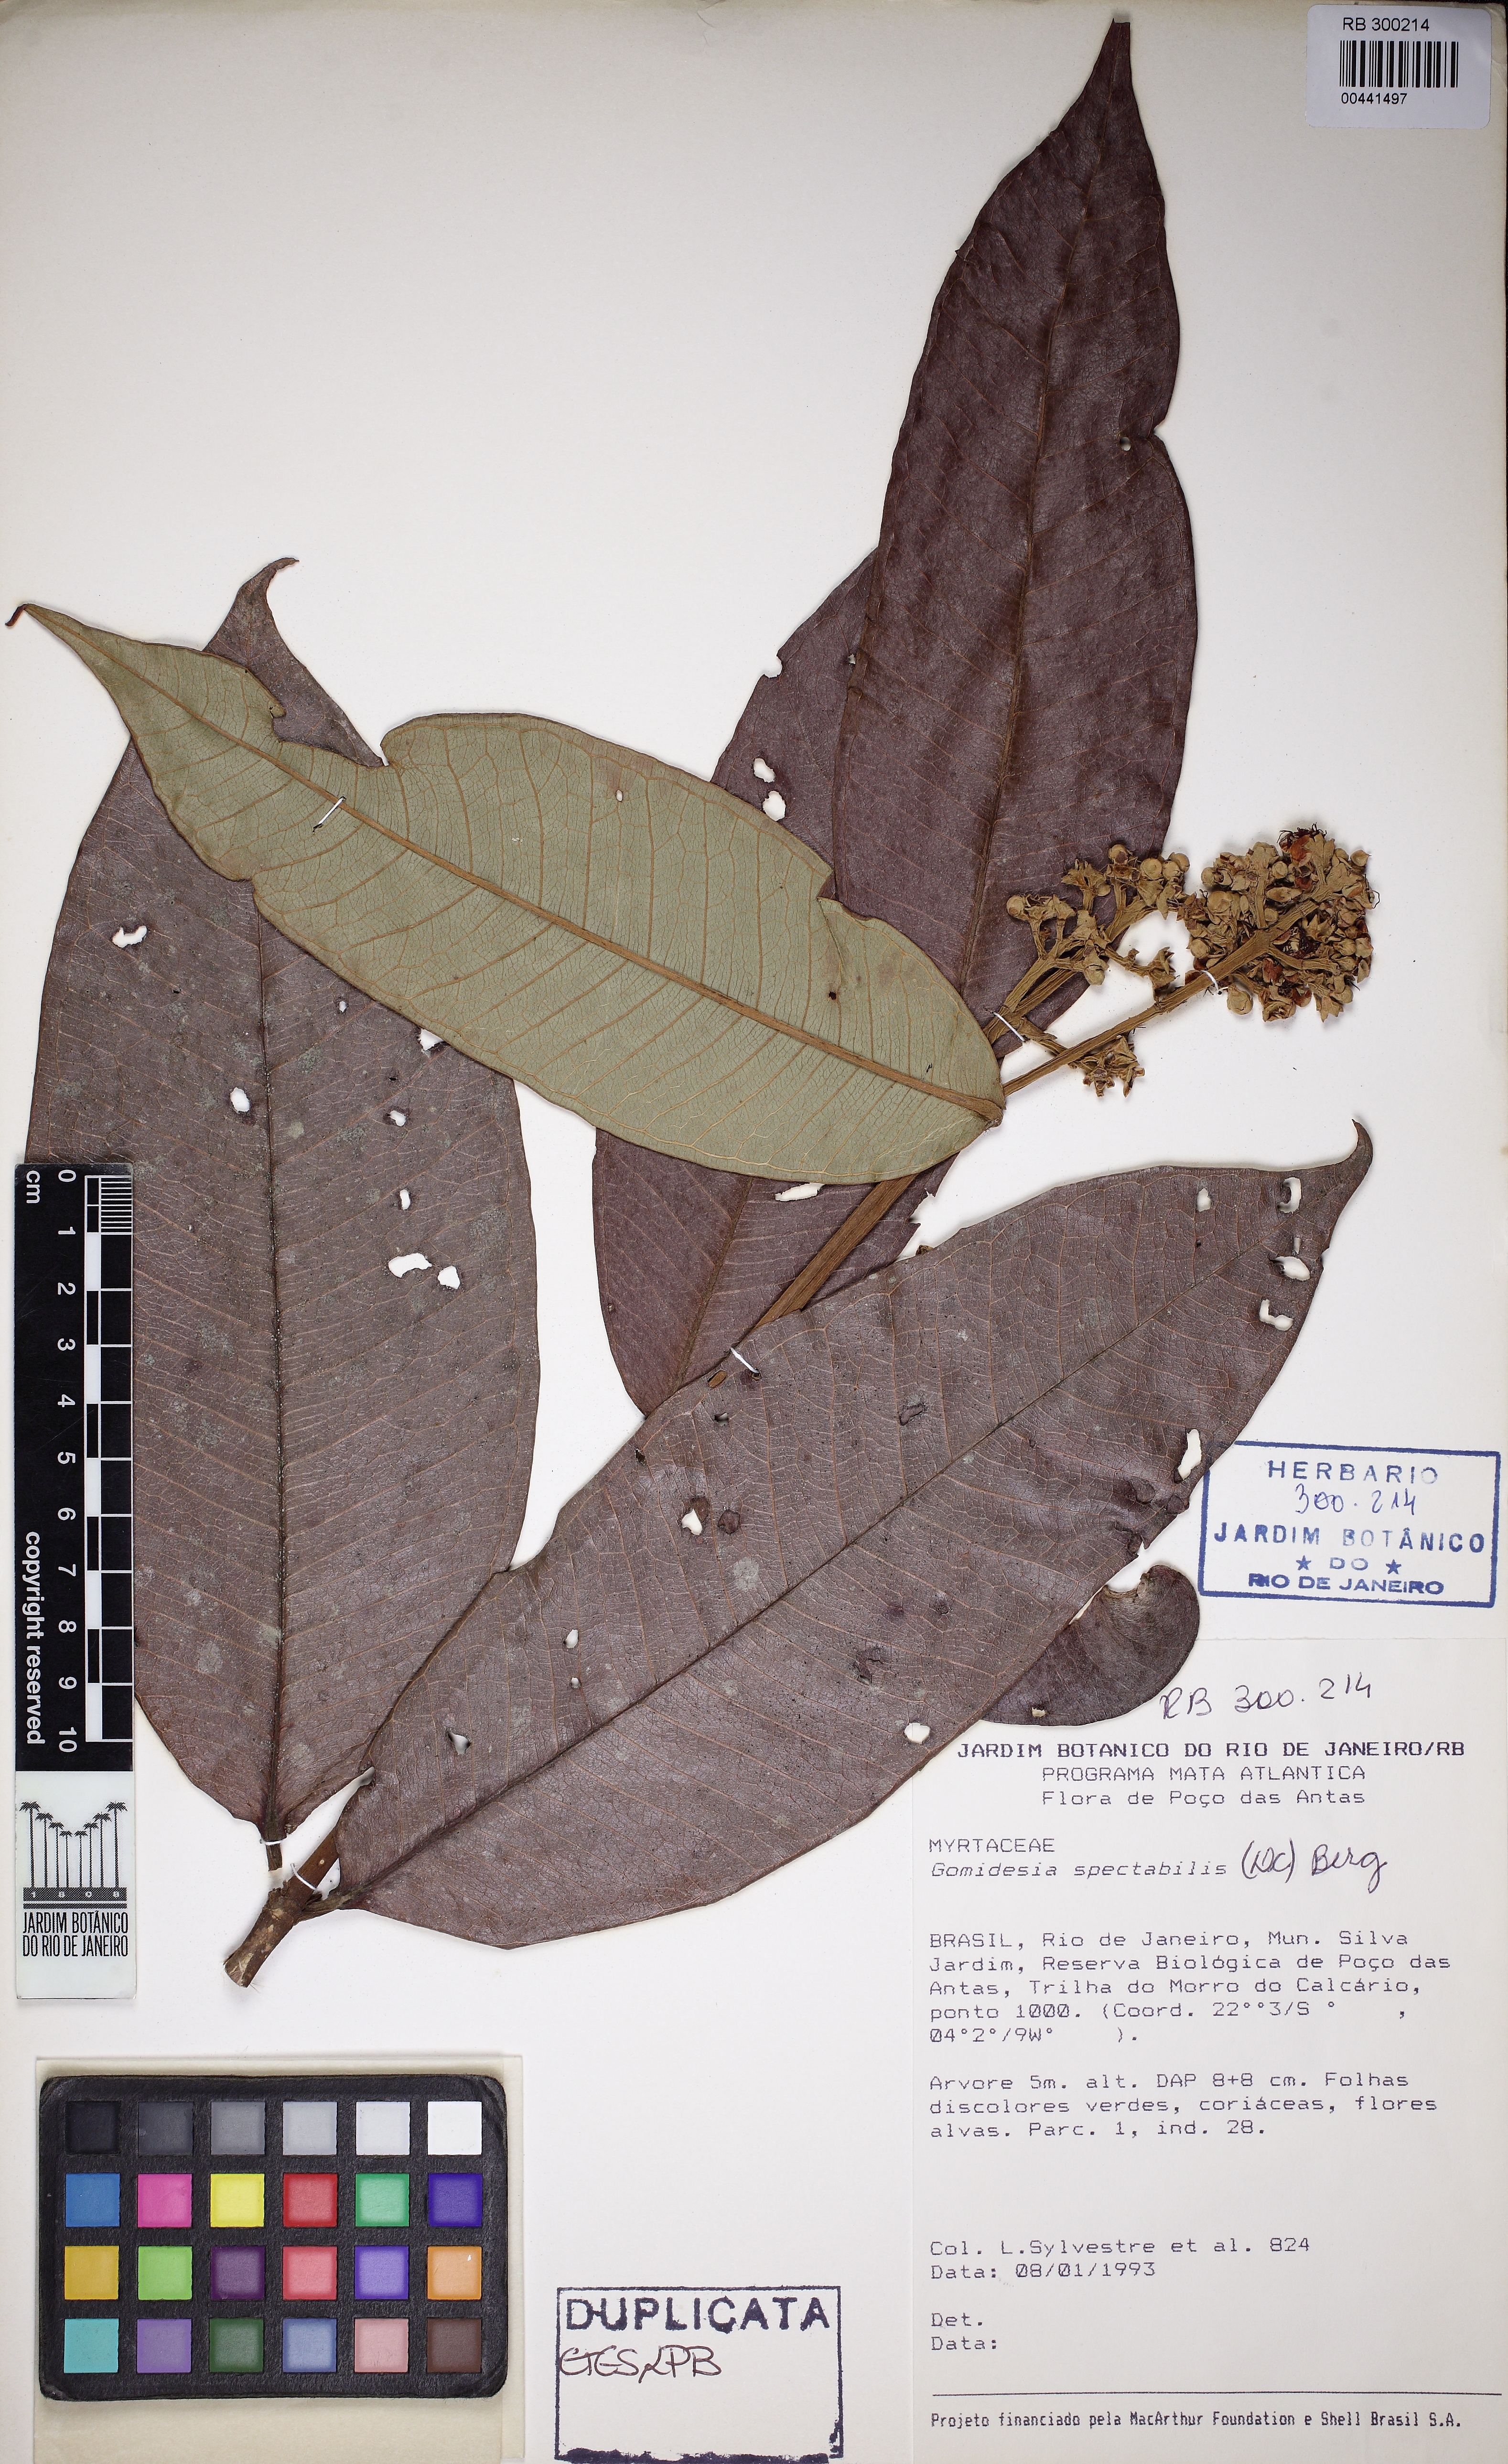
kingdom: Plantae
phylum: Tracheophyta
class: Magnoliopsida
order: Myrtales
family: Myrtaceae
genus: Myrcia
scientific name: Myrcia spectabilis
